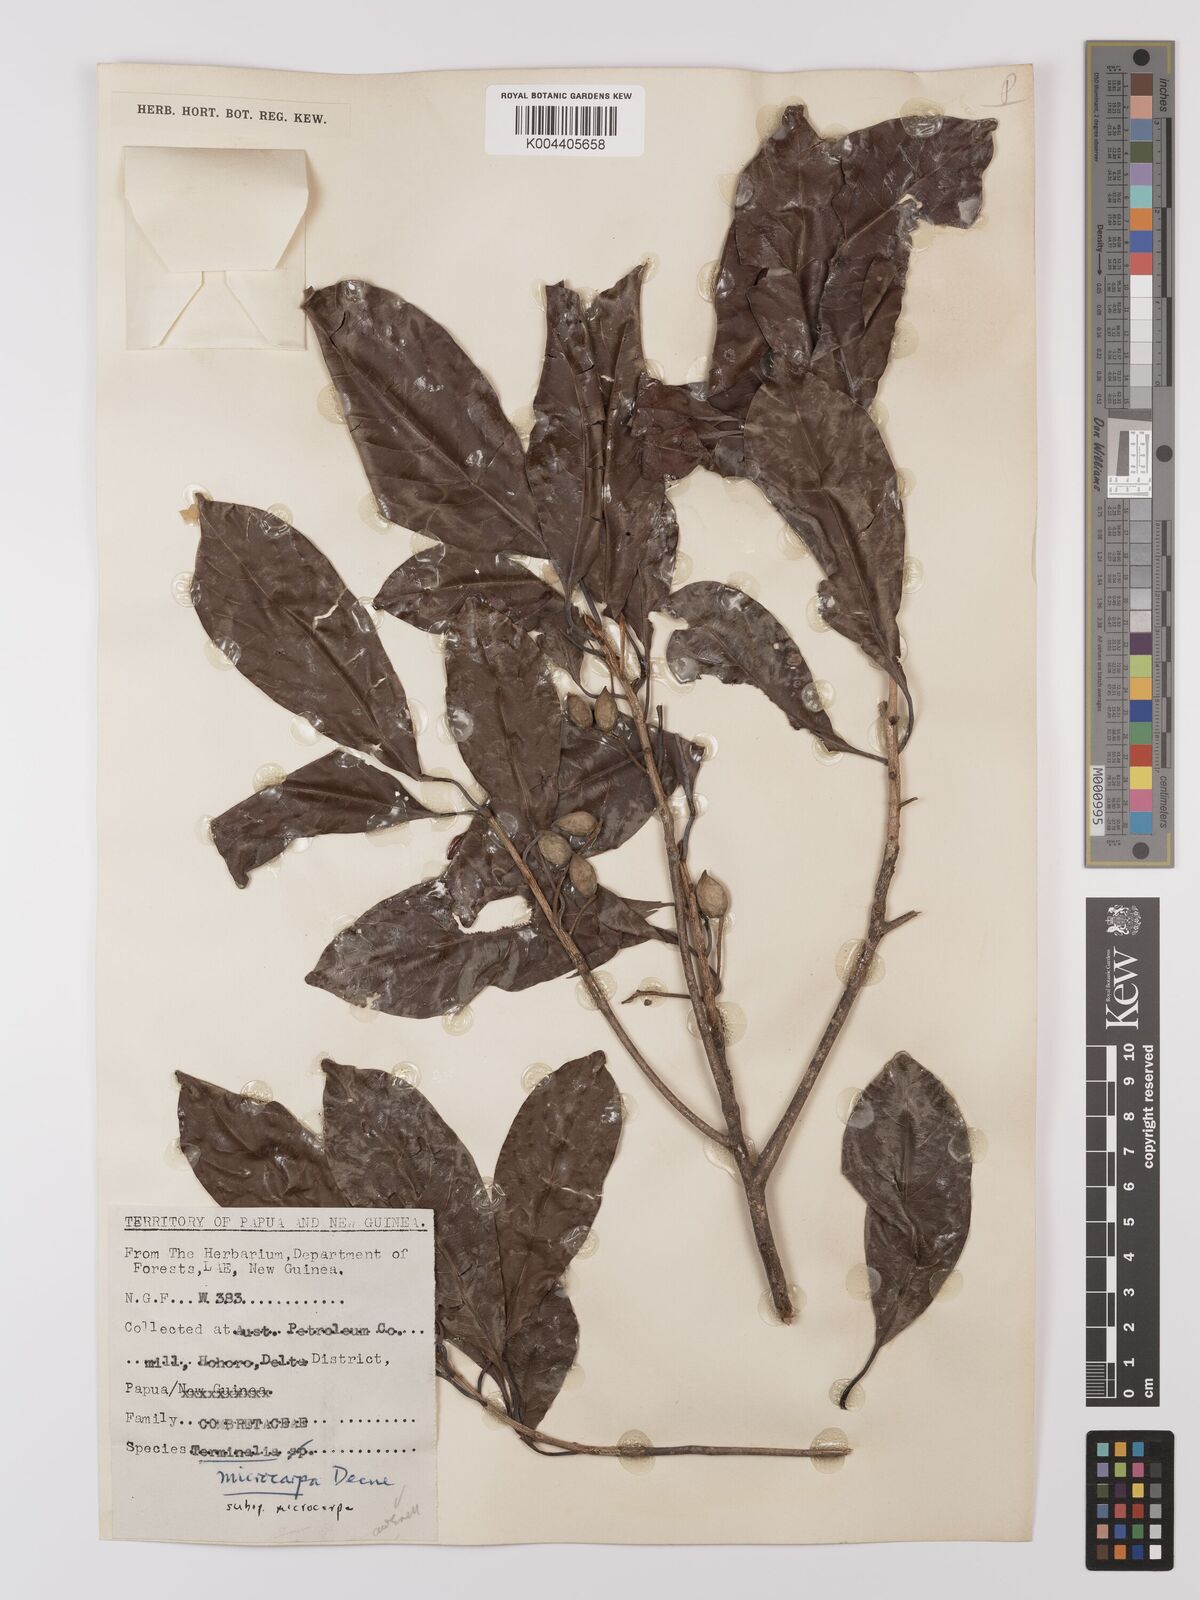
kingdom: Plantae
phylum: Tracheophyta
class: Magnoliopsida
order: Myrtales
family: Combretaceae
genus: Terminalia
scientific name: Terminalia
